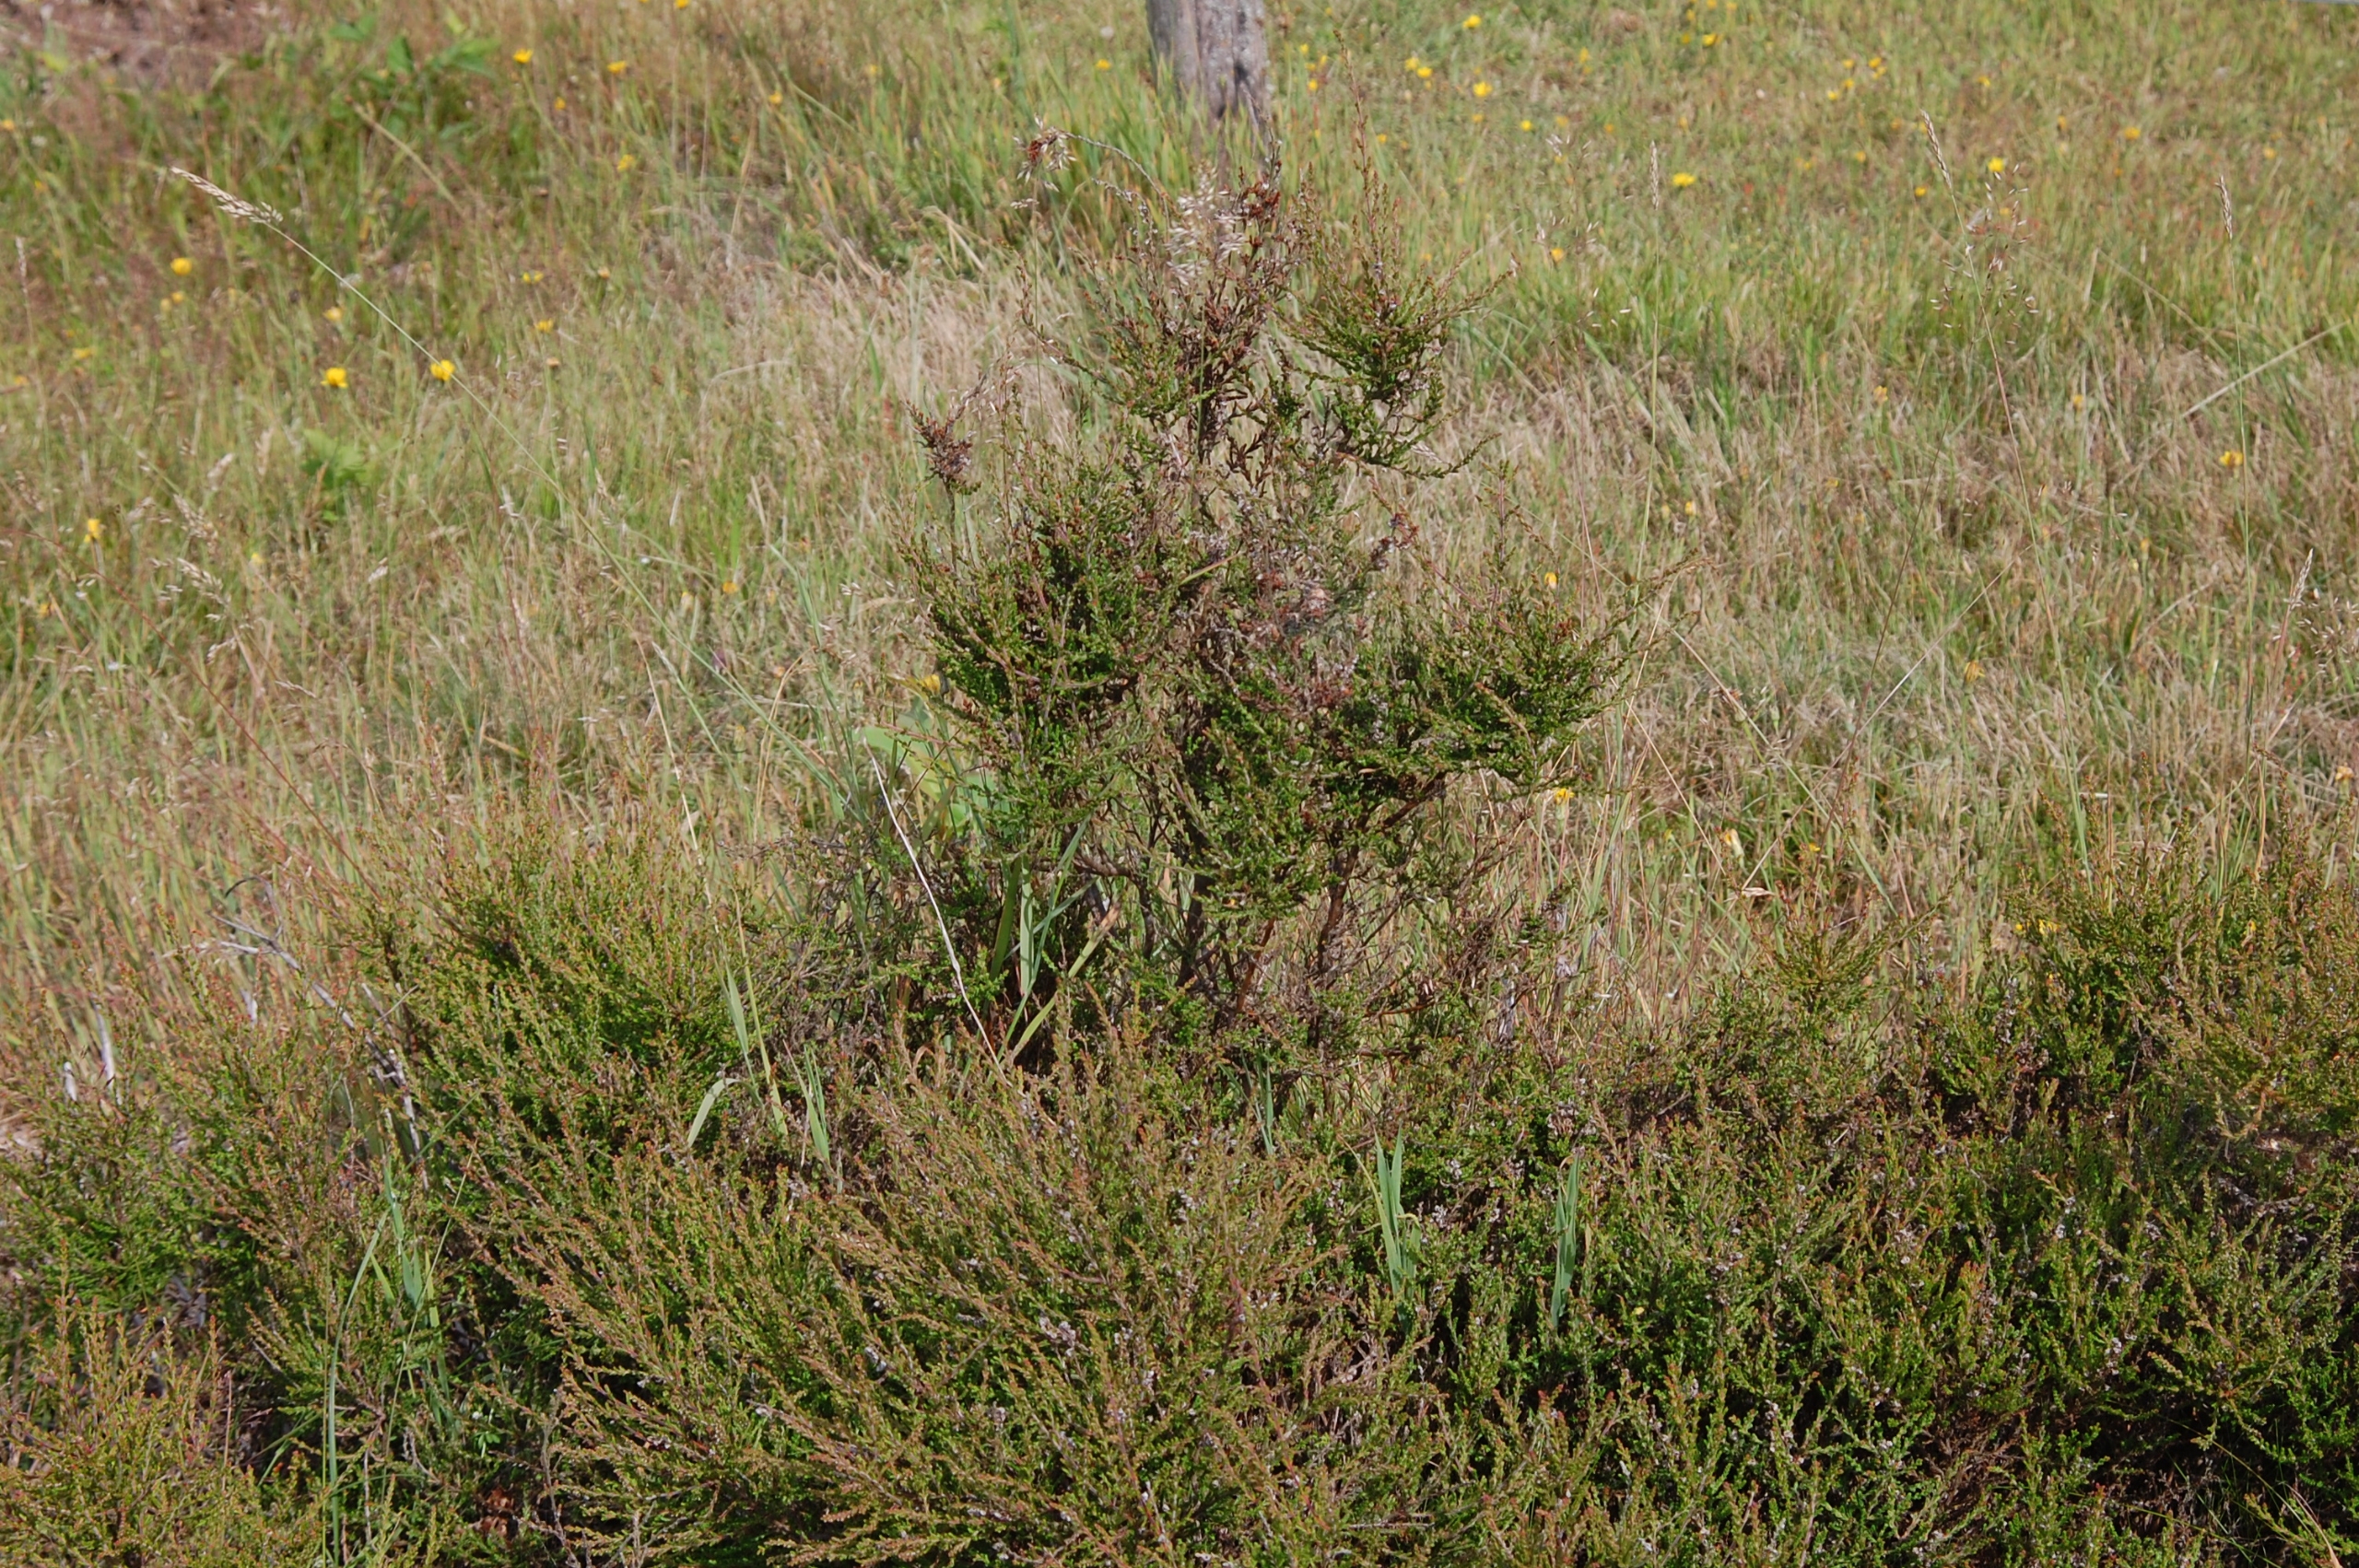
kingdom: Plantae
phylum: Tracheophyta
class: Magnoliopsida
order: Ericales
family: Ericaceae
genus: Calluna
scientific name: Calluna vulgaris
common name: Hedelyng
